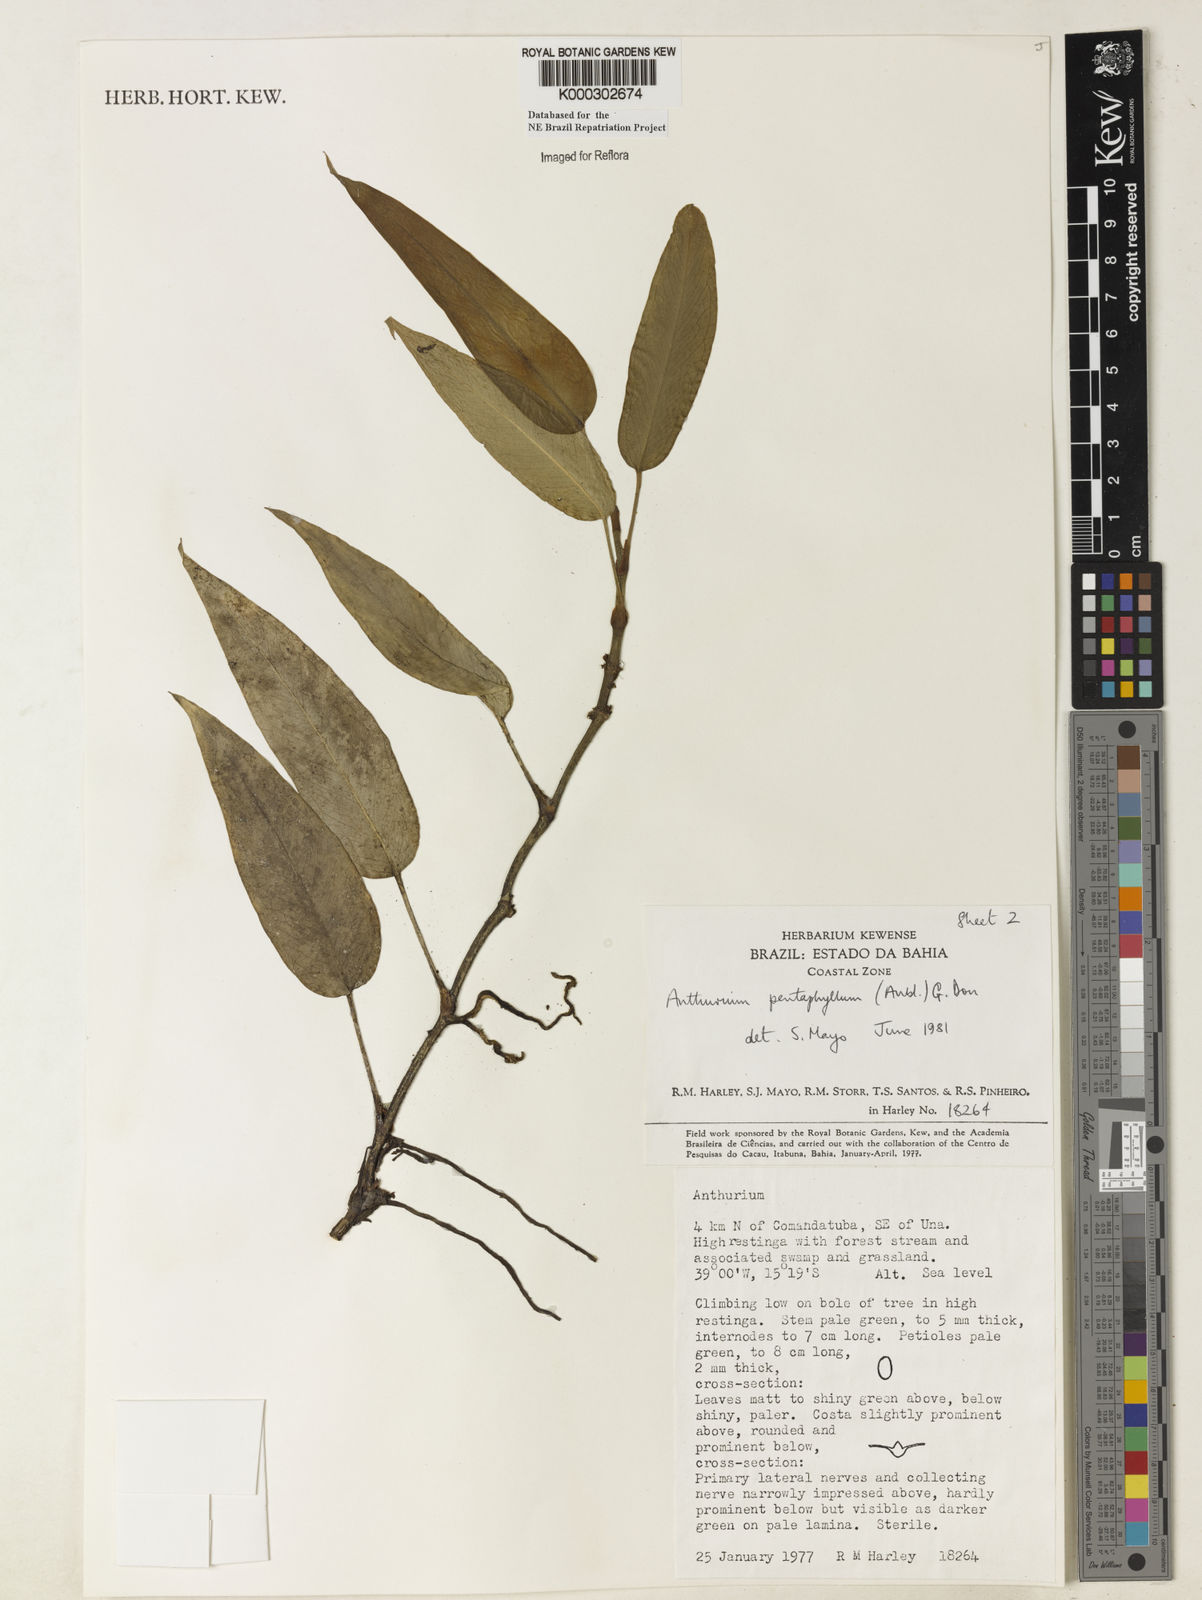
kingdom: Plantae
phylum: Tracheophyta
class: Liliopsida
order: Alismatales
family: Araceae
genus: Anthurium
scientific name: Anthurium pentaphyllum
